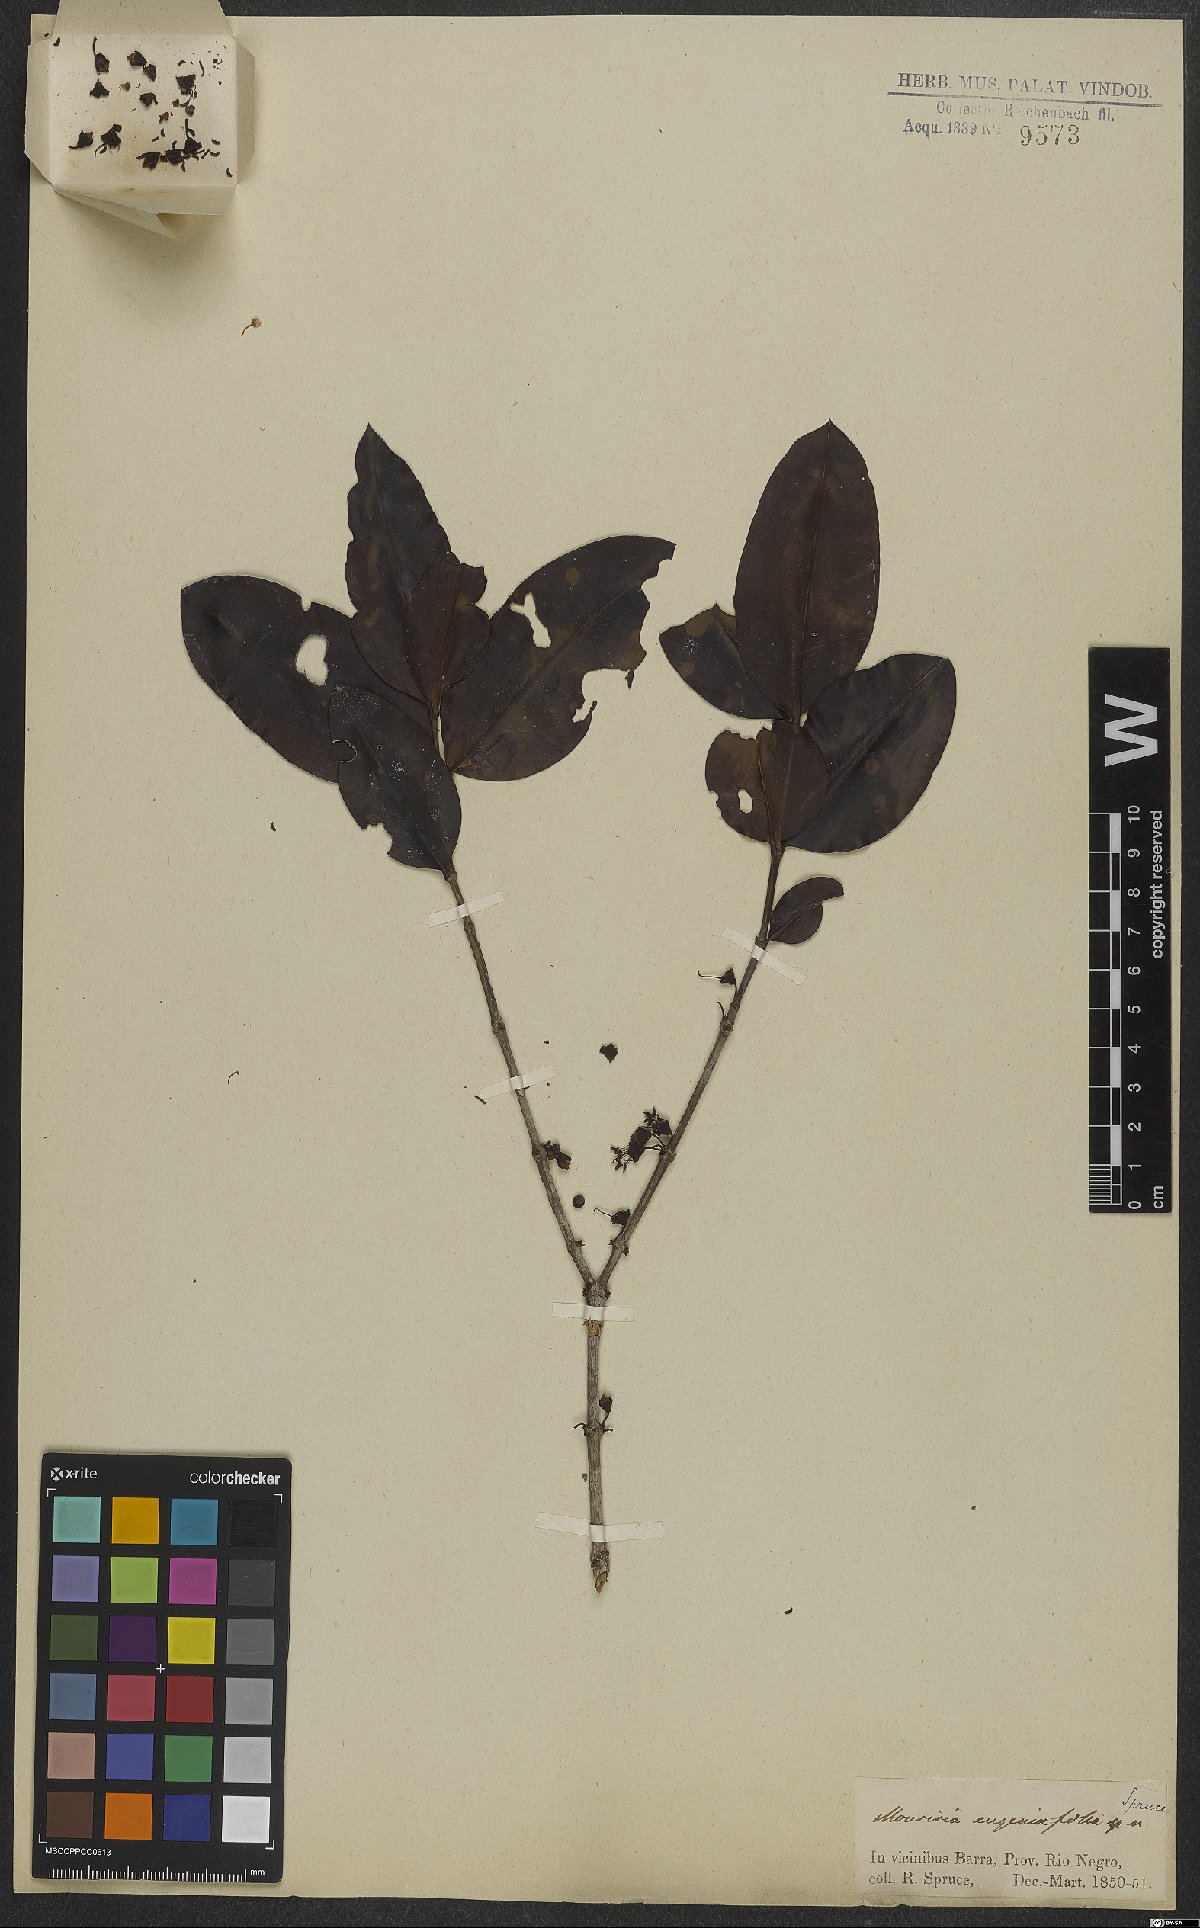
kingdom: Plantae
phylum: Tracheophyta
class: Magnoliopsida
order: Myrtales
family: Melastomataceae
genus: Mouriri
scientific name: Mouriri eugeniifolia
